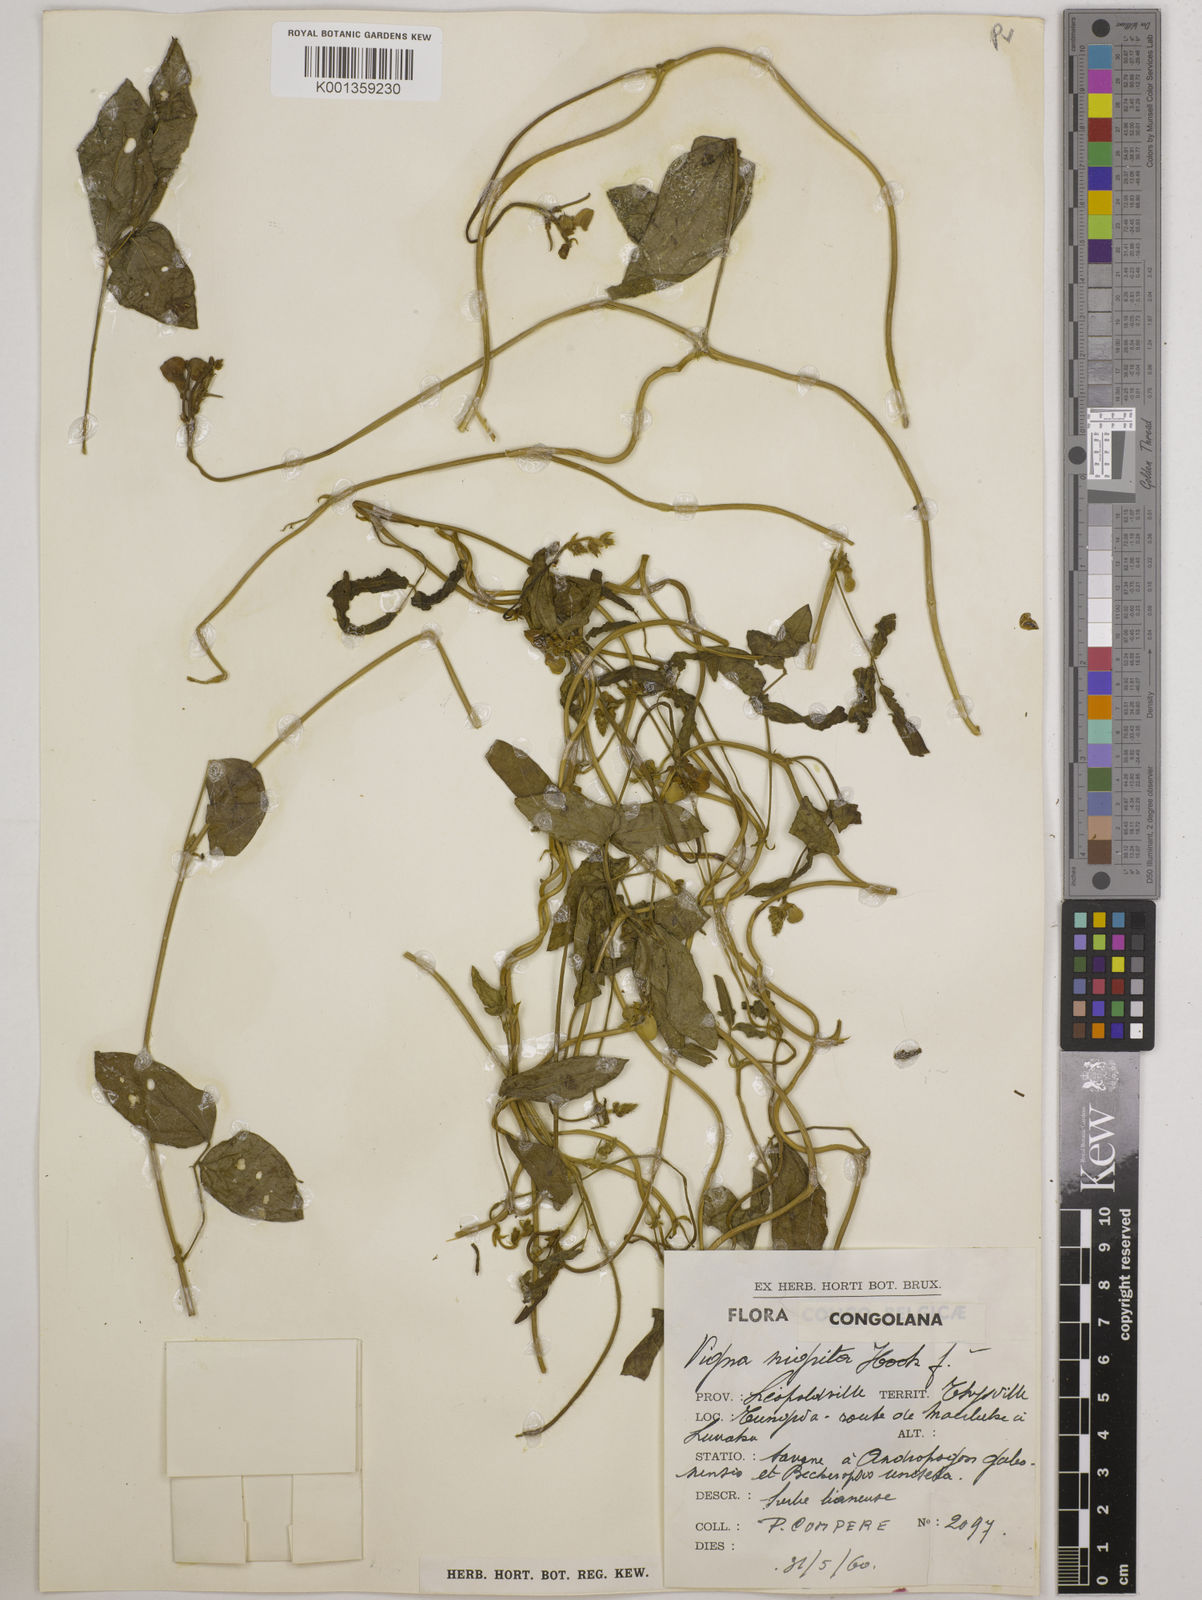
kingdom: Plantae
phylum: Tracheophyta
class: Magnoliopsida
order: Fabales
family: Fabaceae
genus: Vigna
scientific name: Vigna nigritia
